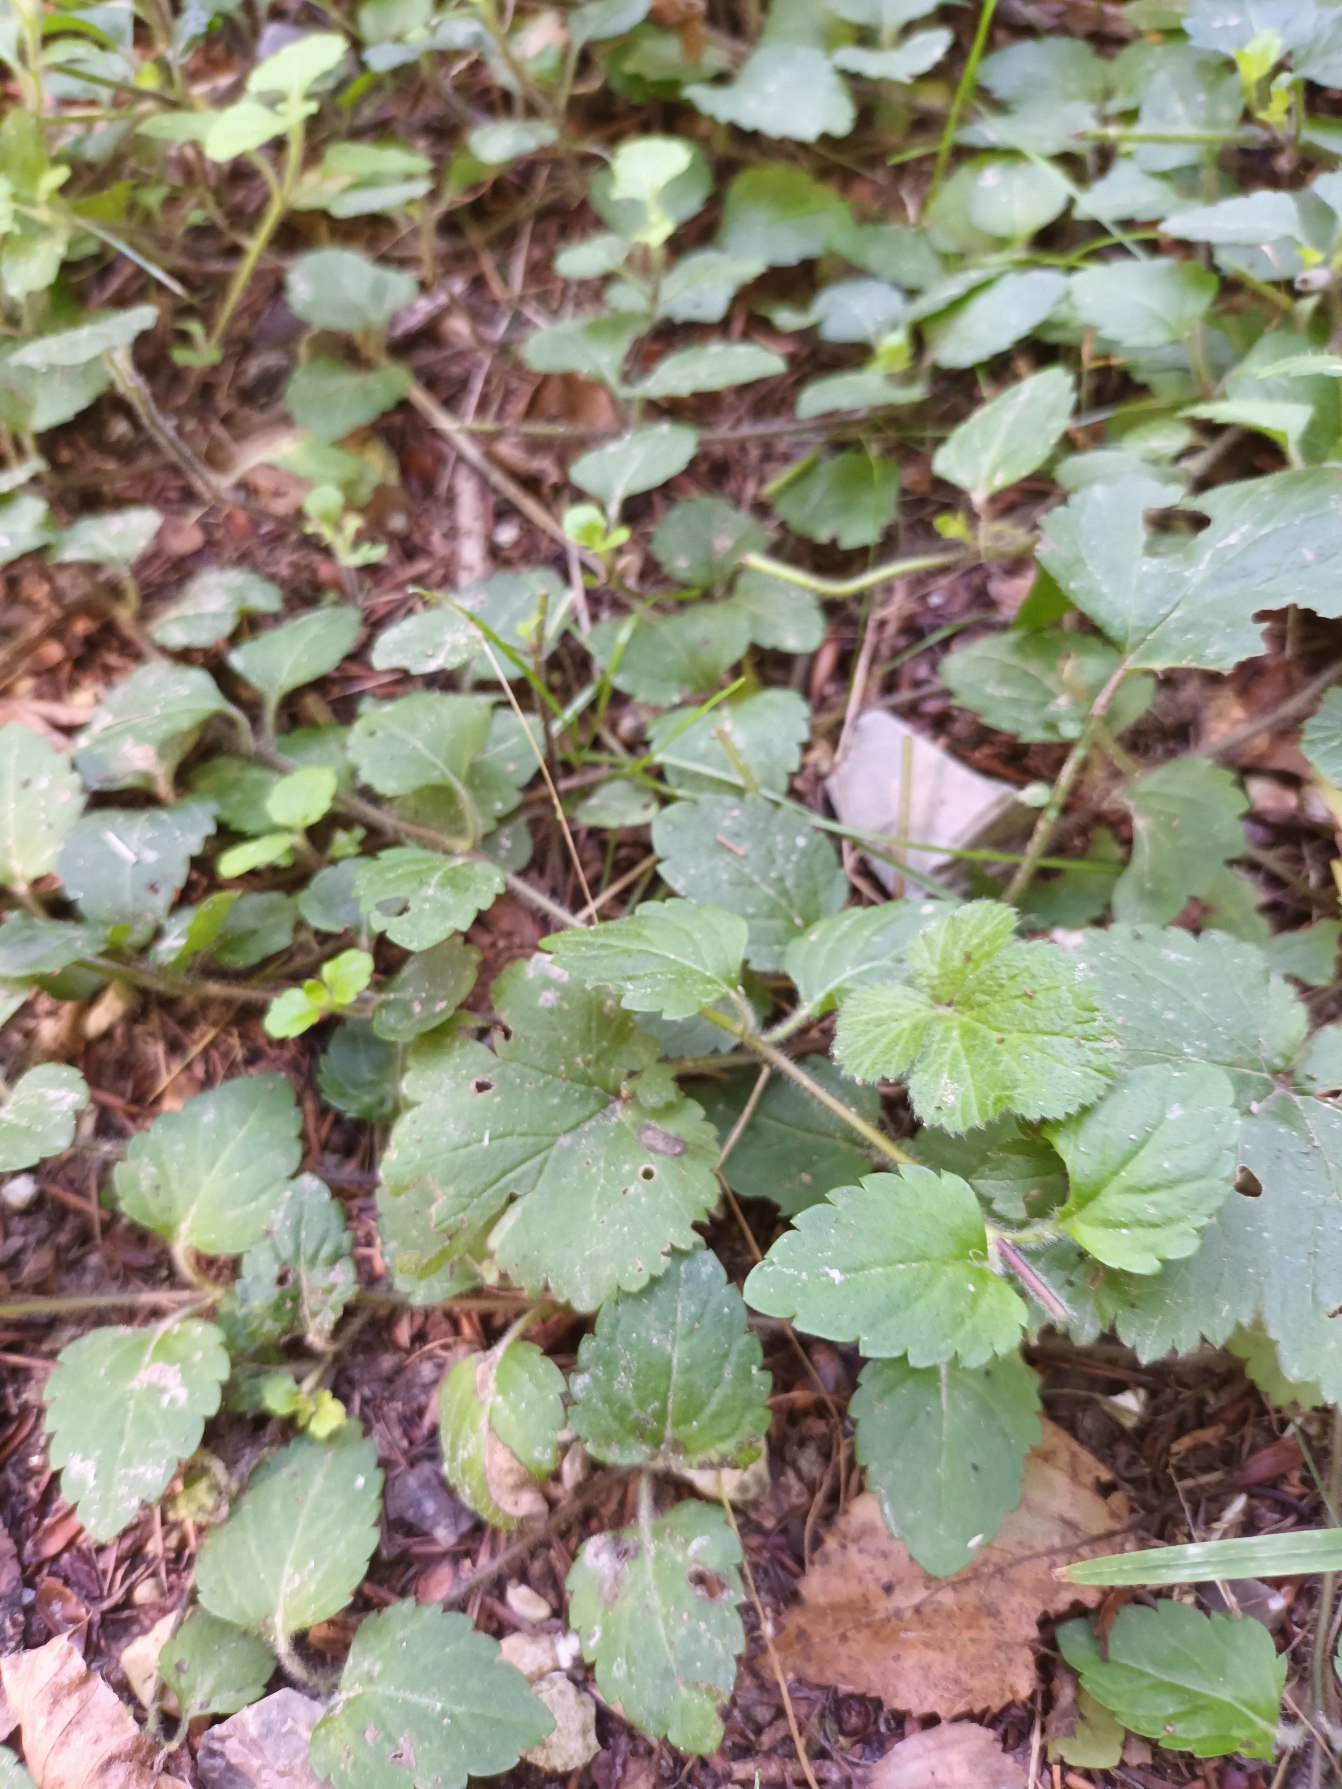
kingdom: Plantae
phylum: Tracheophyta
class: Magnoliopsida
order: Lamiales
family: Plantaginaceae
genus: Veronica
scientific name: Veronica montana
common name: Bjerg-ærenpris
